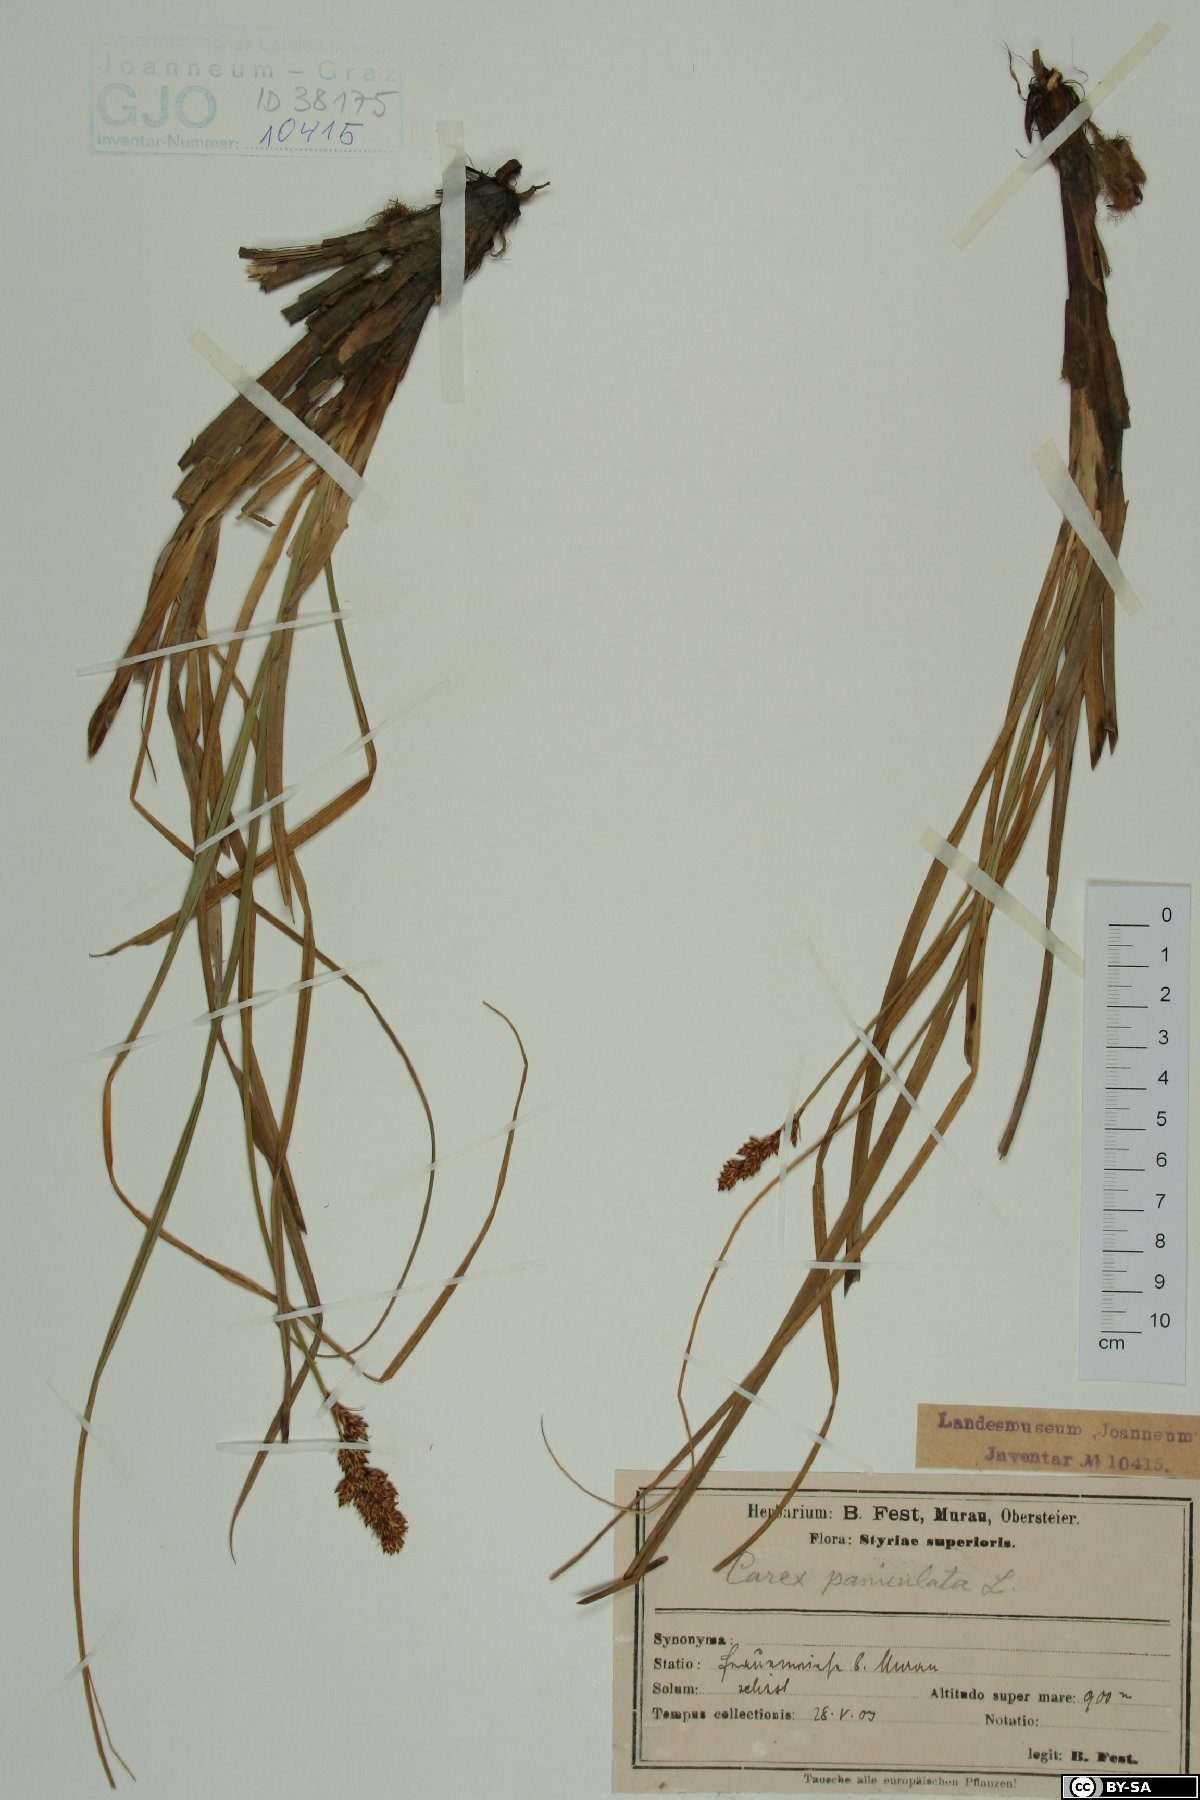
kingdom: Plantae
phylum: Tracheophyta
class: Liliopsida
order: Poales
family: Cyperaceae
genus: Carex
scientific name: Carex paniculata
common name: Greater tussock-sedge
